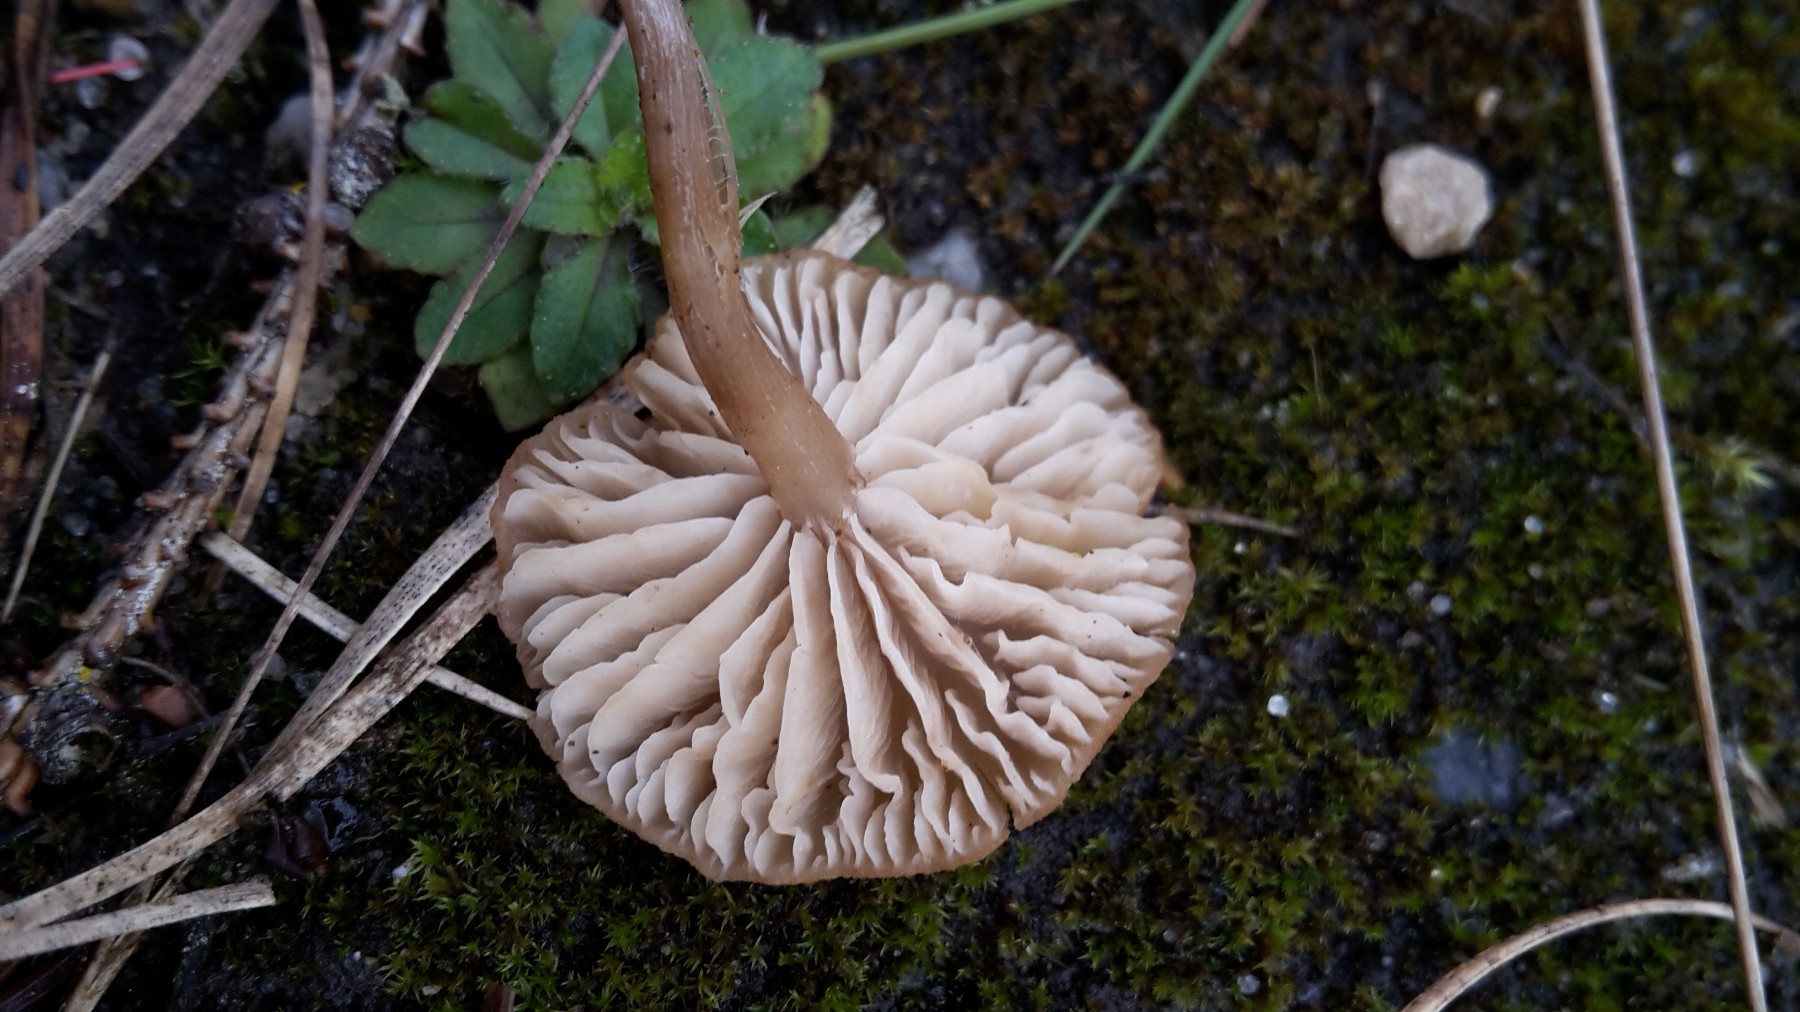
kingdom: Fungi
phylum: Basidiomycota
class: Agaricomycetes
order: Agaricales
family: Callistosporiaceae
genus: Pseudolaccaria
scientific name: Pseudolaccaria pachyphylla
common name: hvælvet tykblad
